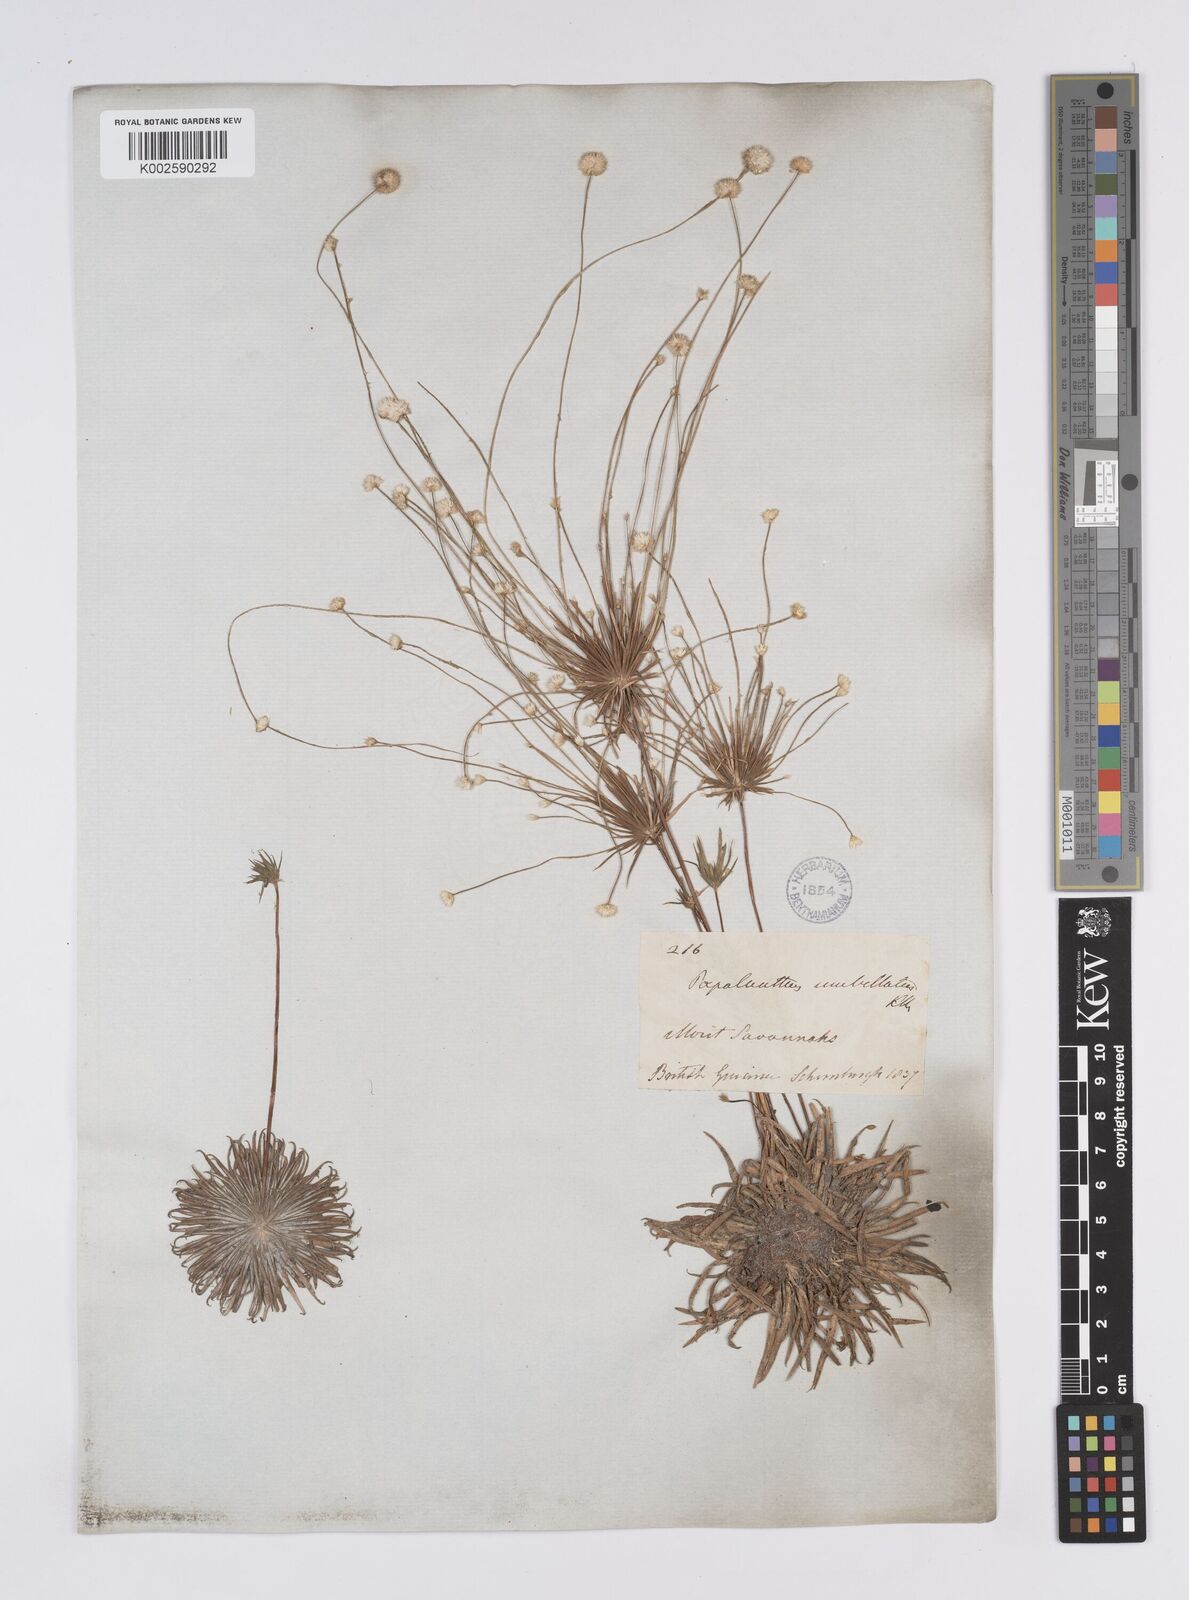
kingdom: Plantae
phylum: Tracheophyta
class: Liliopsida
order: Poales
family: Eriocaulaceae
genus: Syngonanthus
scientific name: Syngonanthus umbellatus
